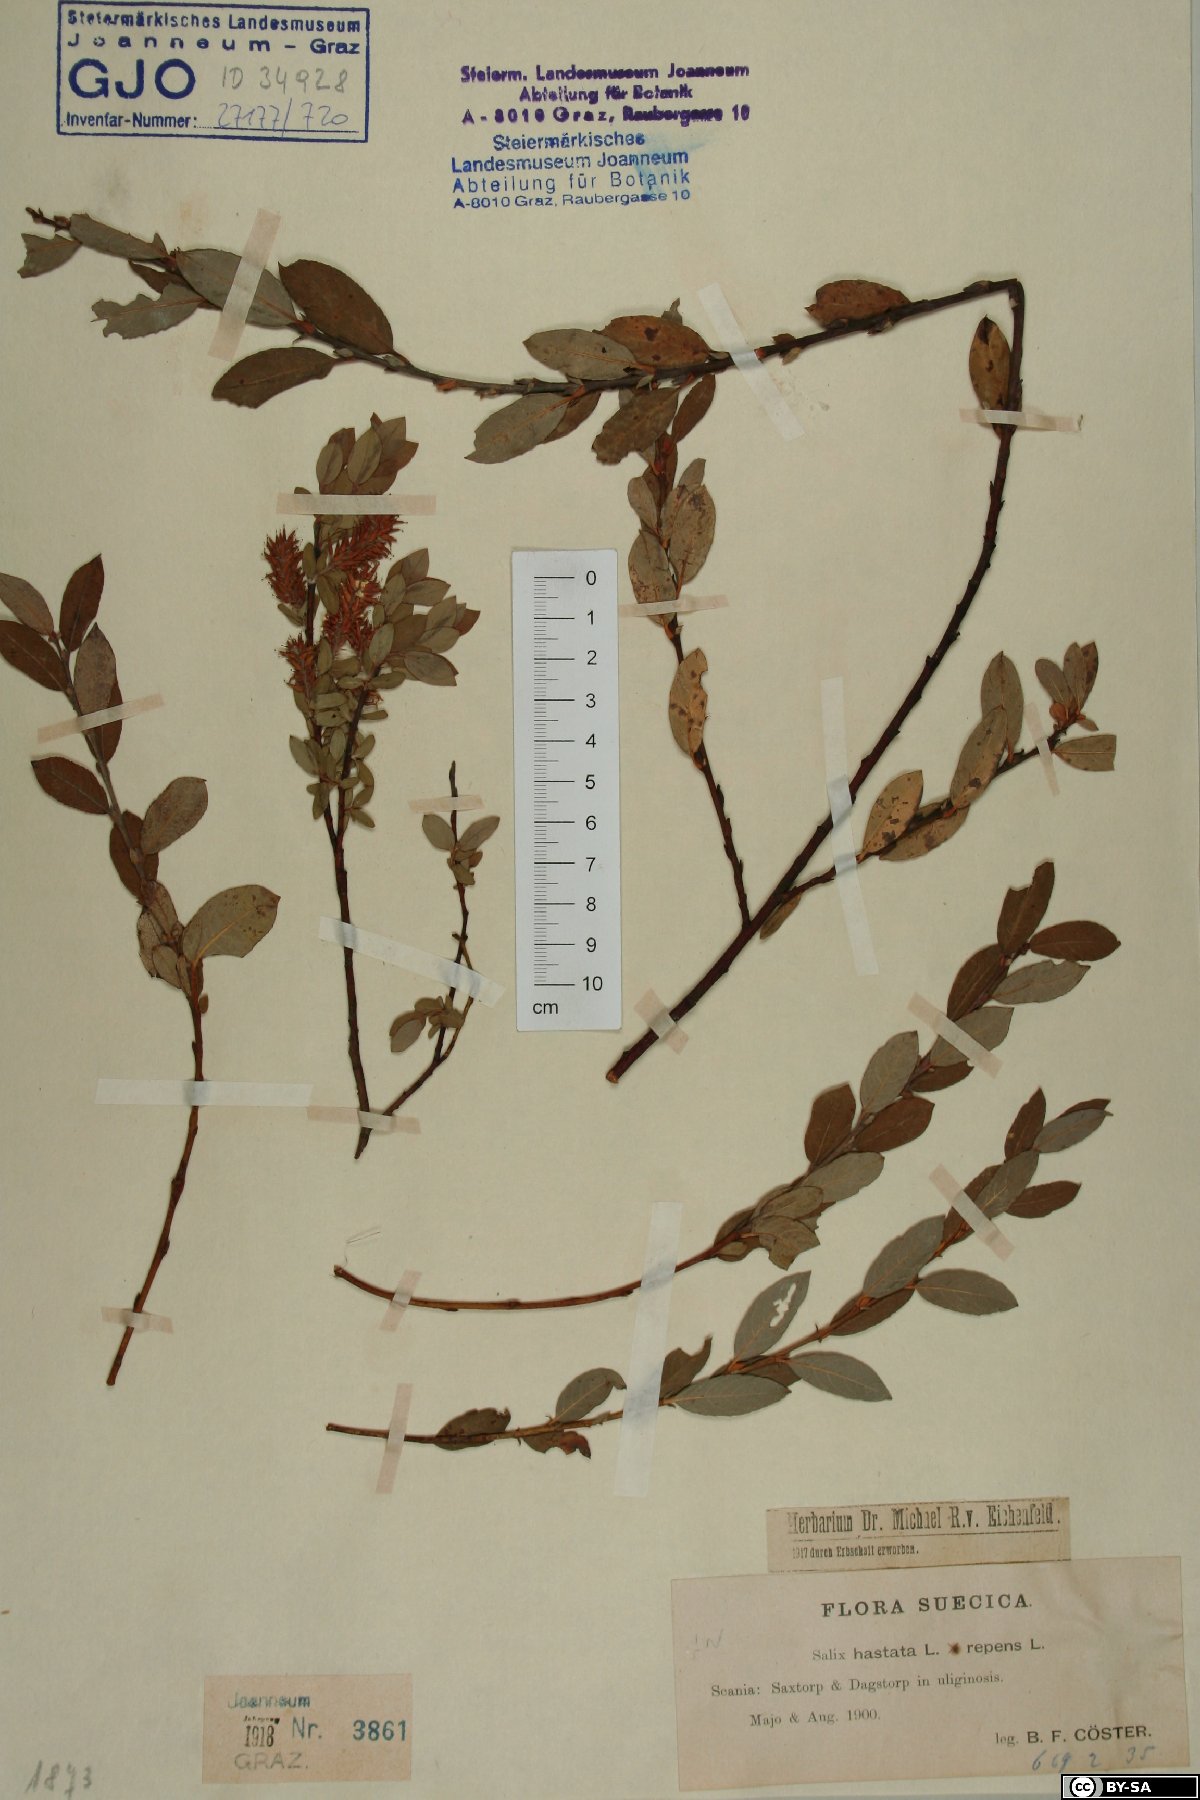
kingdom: Plantae
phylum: Tracheophyta
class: Magnoliopsida
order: Malpighiales
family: Salicaceae
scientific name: Salicaceae
